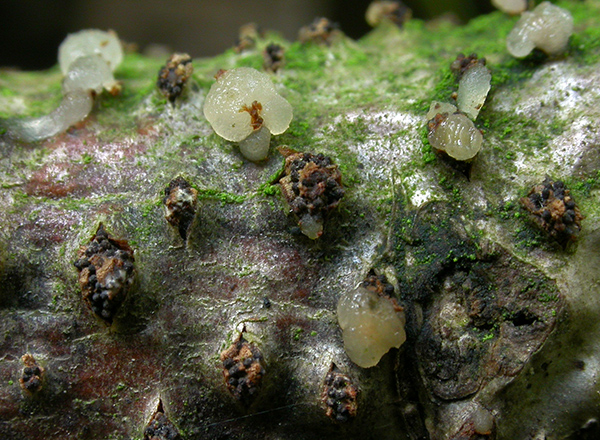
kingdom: Fungi
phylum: Basidiomycota
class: Tremellomycetes
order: Tremellales
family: Tremellaceae
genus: Tremella
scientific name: Tremella globispora
